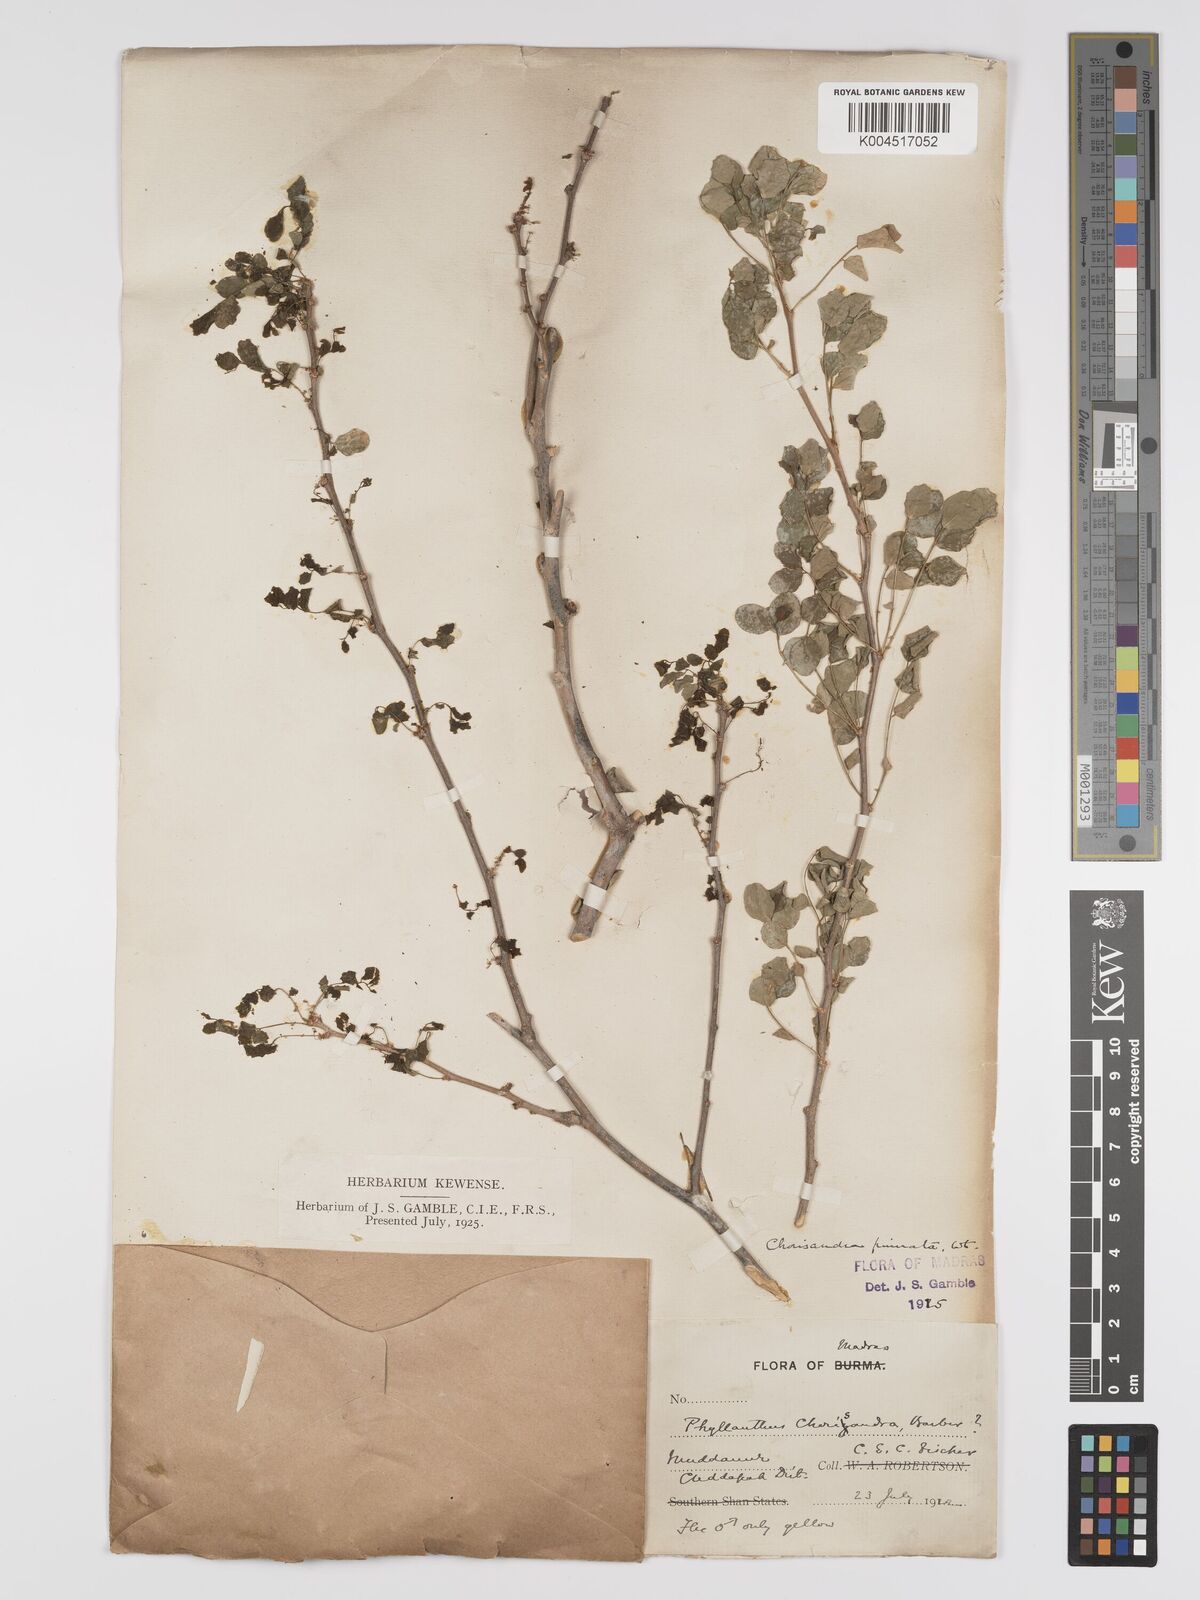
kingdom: Plantae
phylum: Tracheophyta
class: Magnoliopsida
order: Malpighiales
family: Phyllanthaceae
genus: Phyllanthus
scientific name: Phyllanthus
